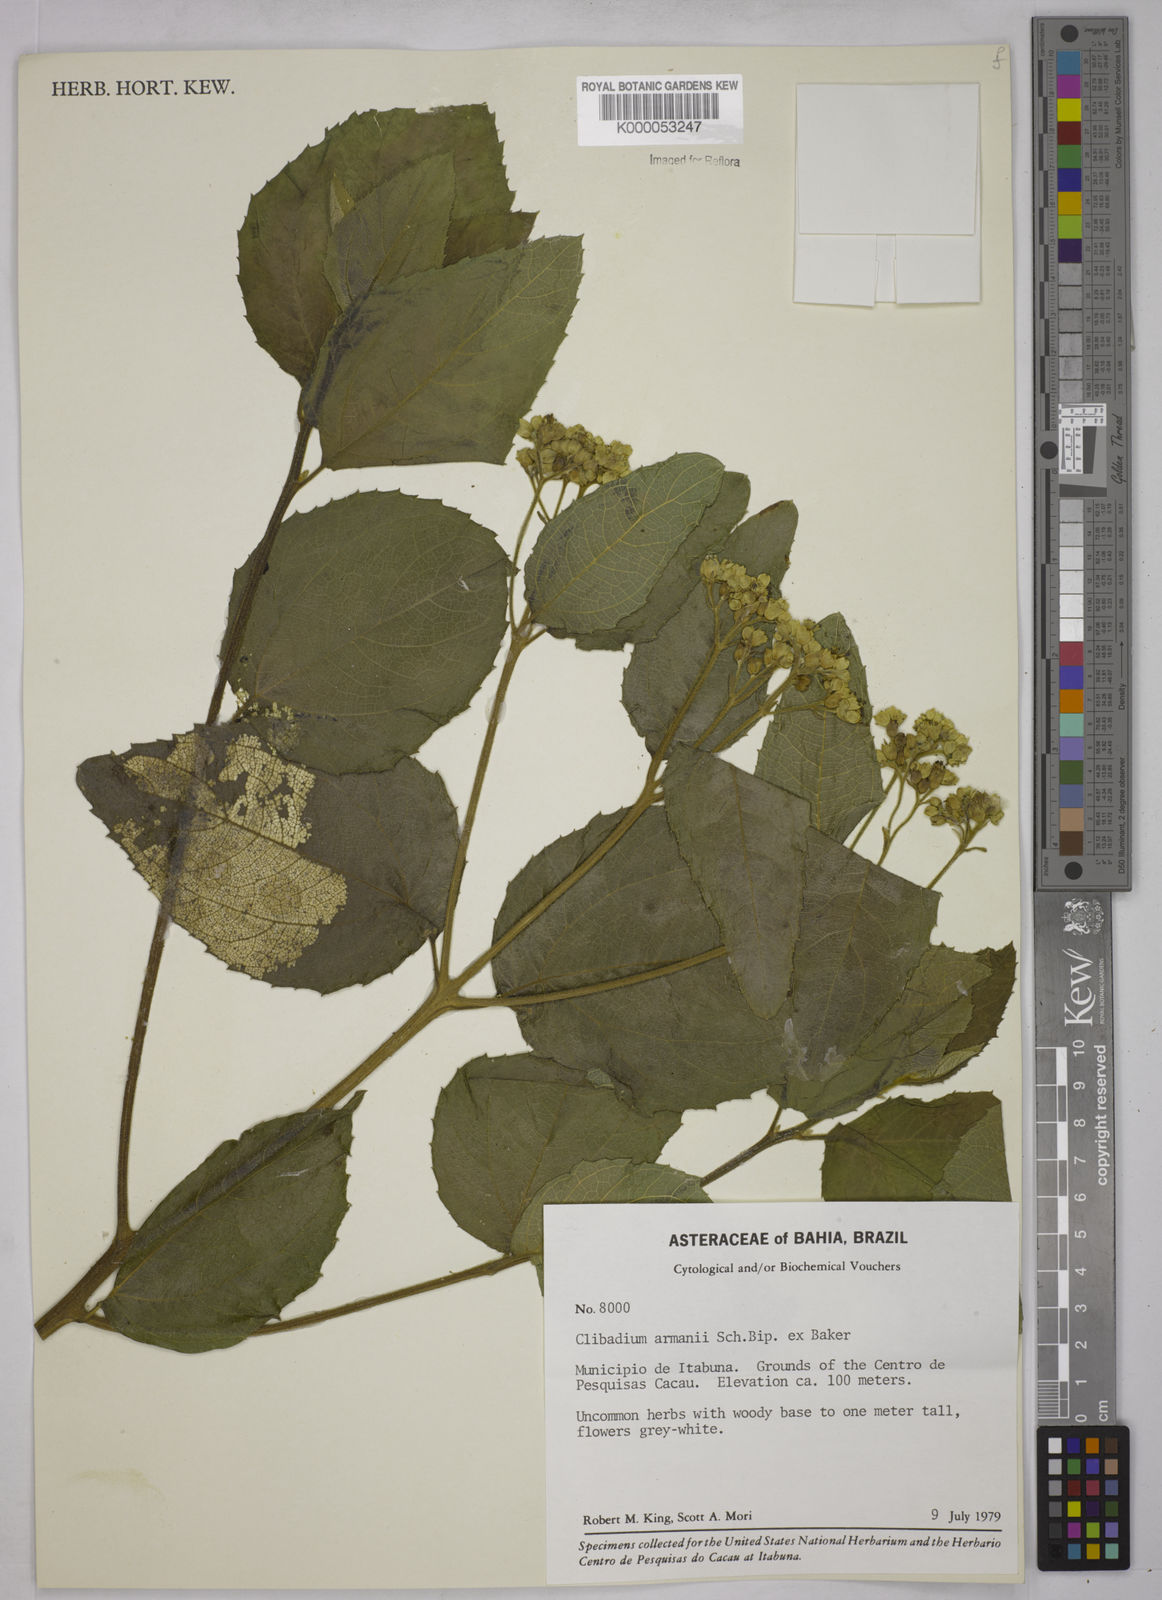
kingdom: Plantae
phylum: Tracheophyta
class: Magnoliopsida
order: Asterales
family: Asteraceae
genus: Clibadium
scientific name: Clibadium armanii
